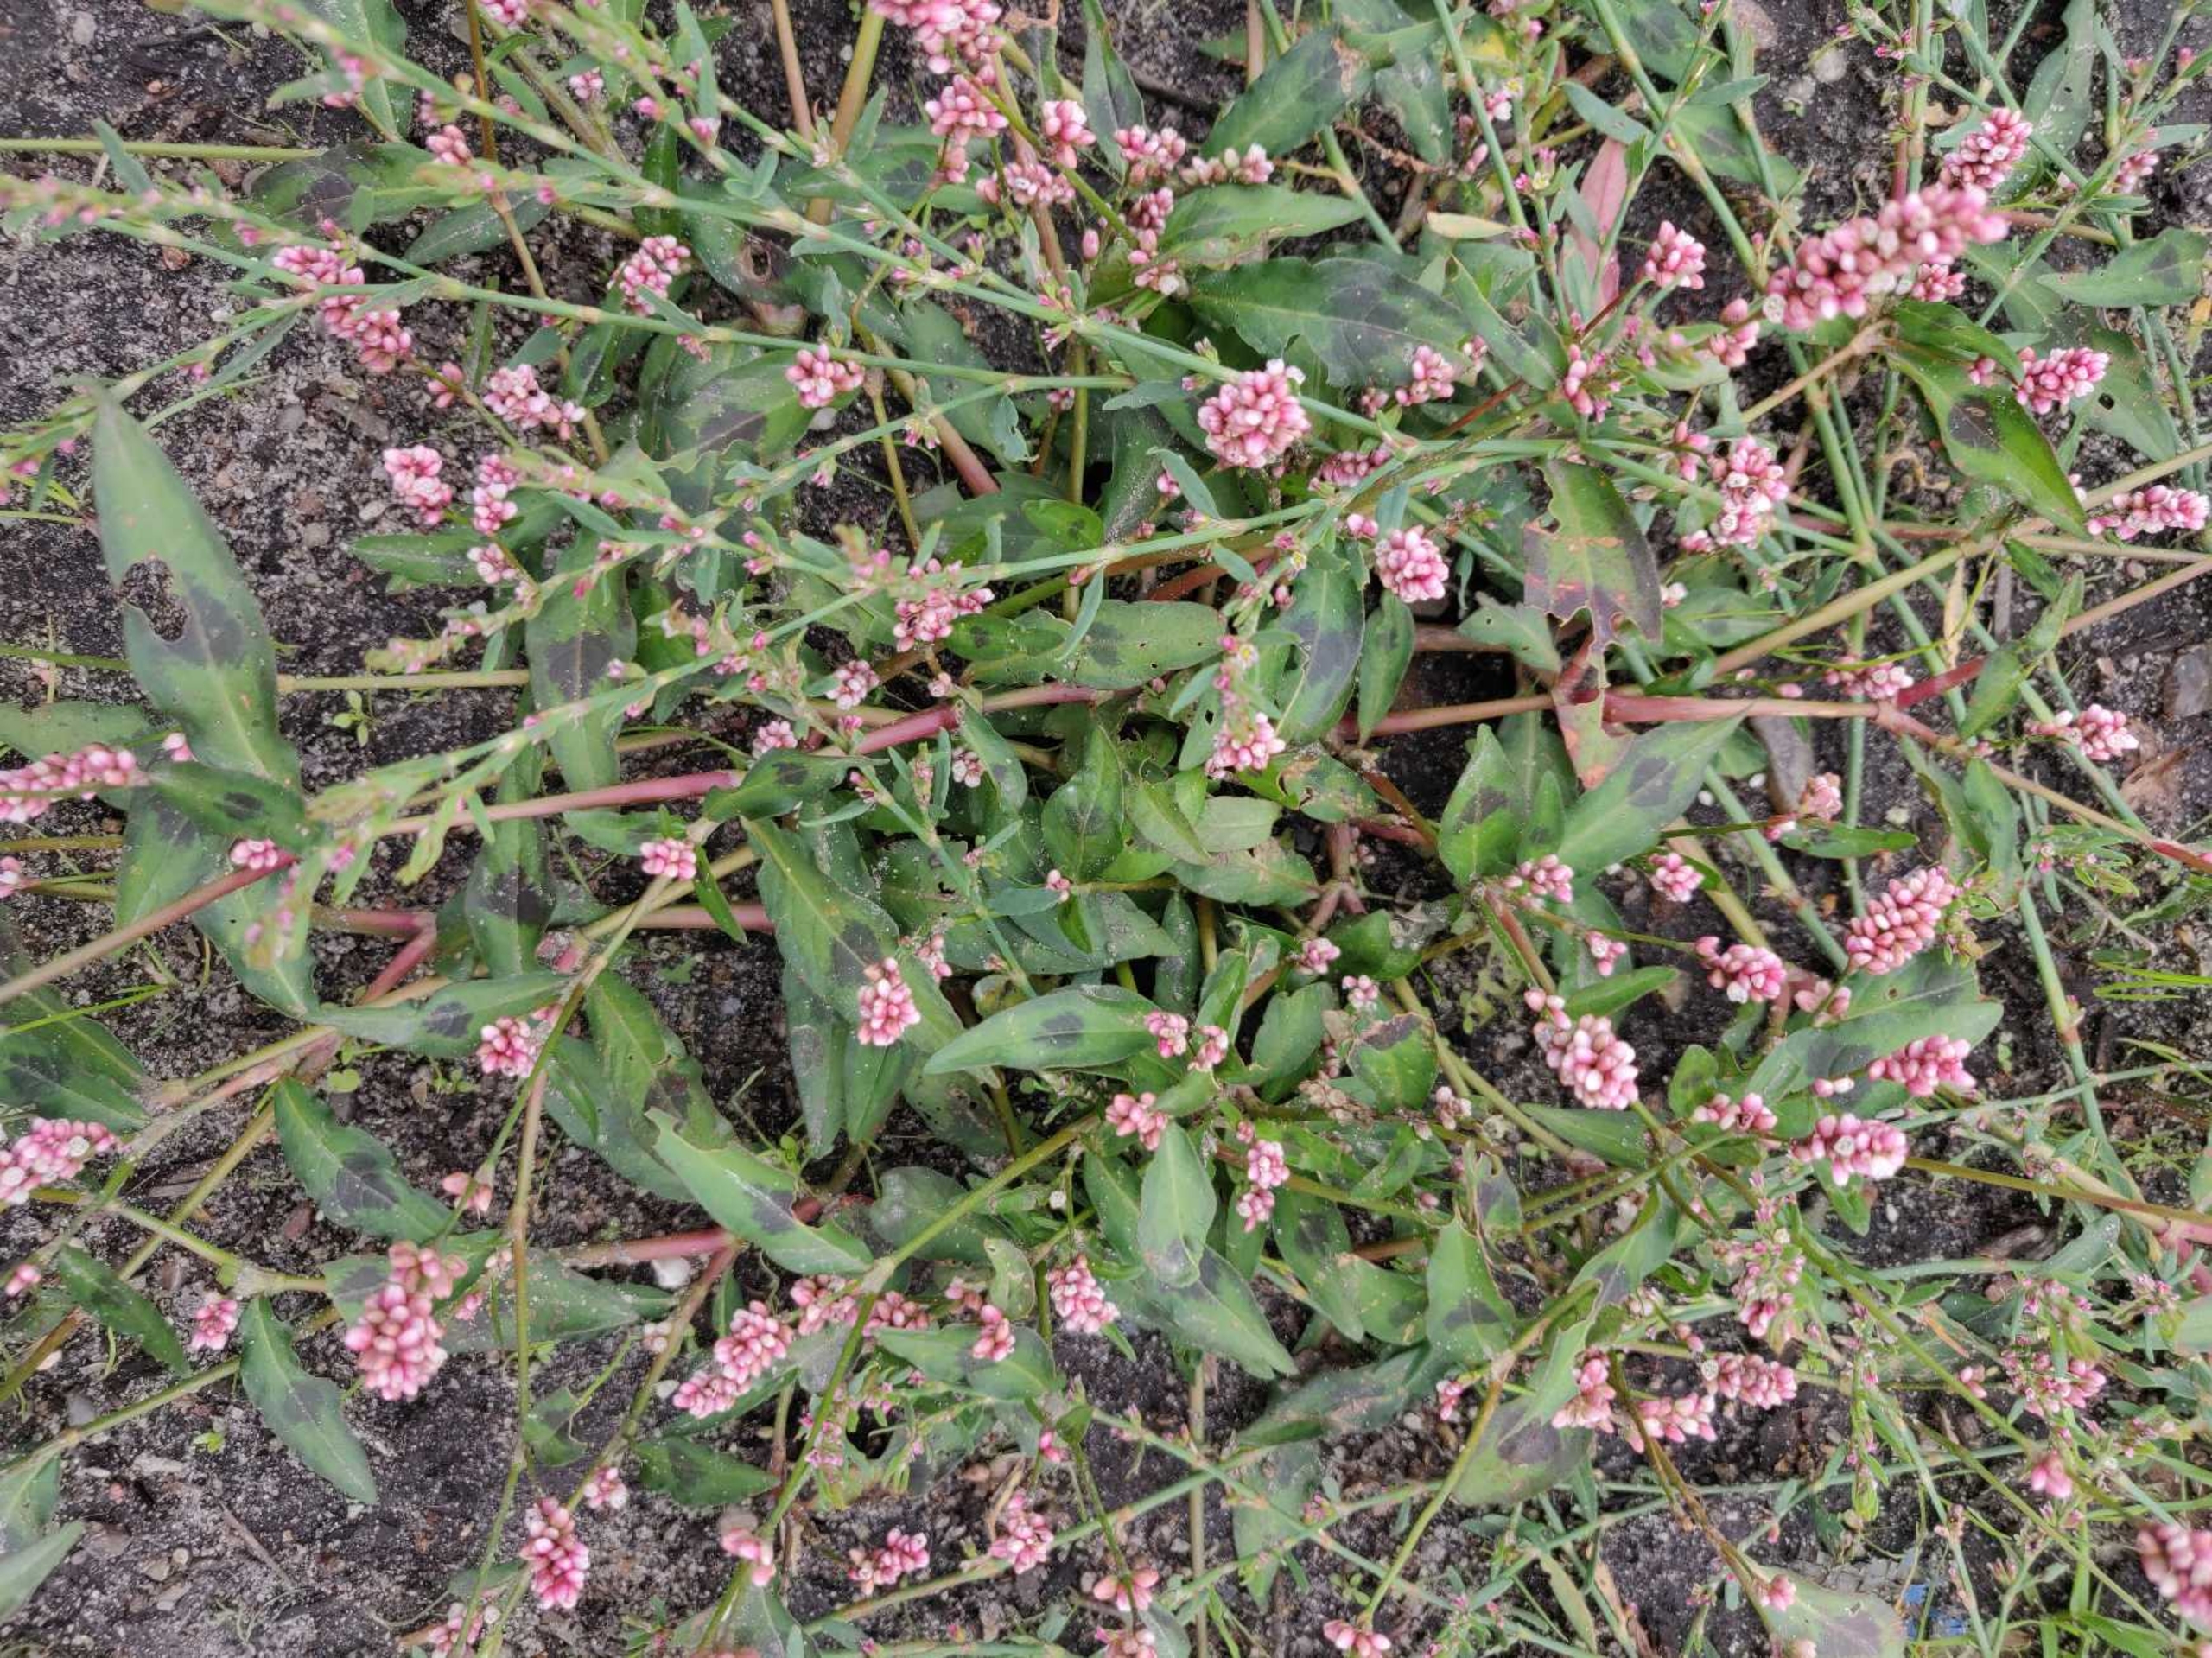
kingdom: Plantae
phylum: Tracheophyta
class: Magnoliopsida
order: Caryophyllales
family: Polygonaceae
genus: Persicaria
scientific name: Persicaria maculosa
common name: Fersken-pileurt
